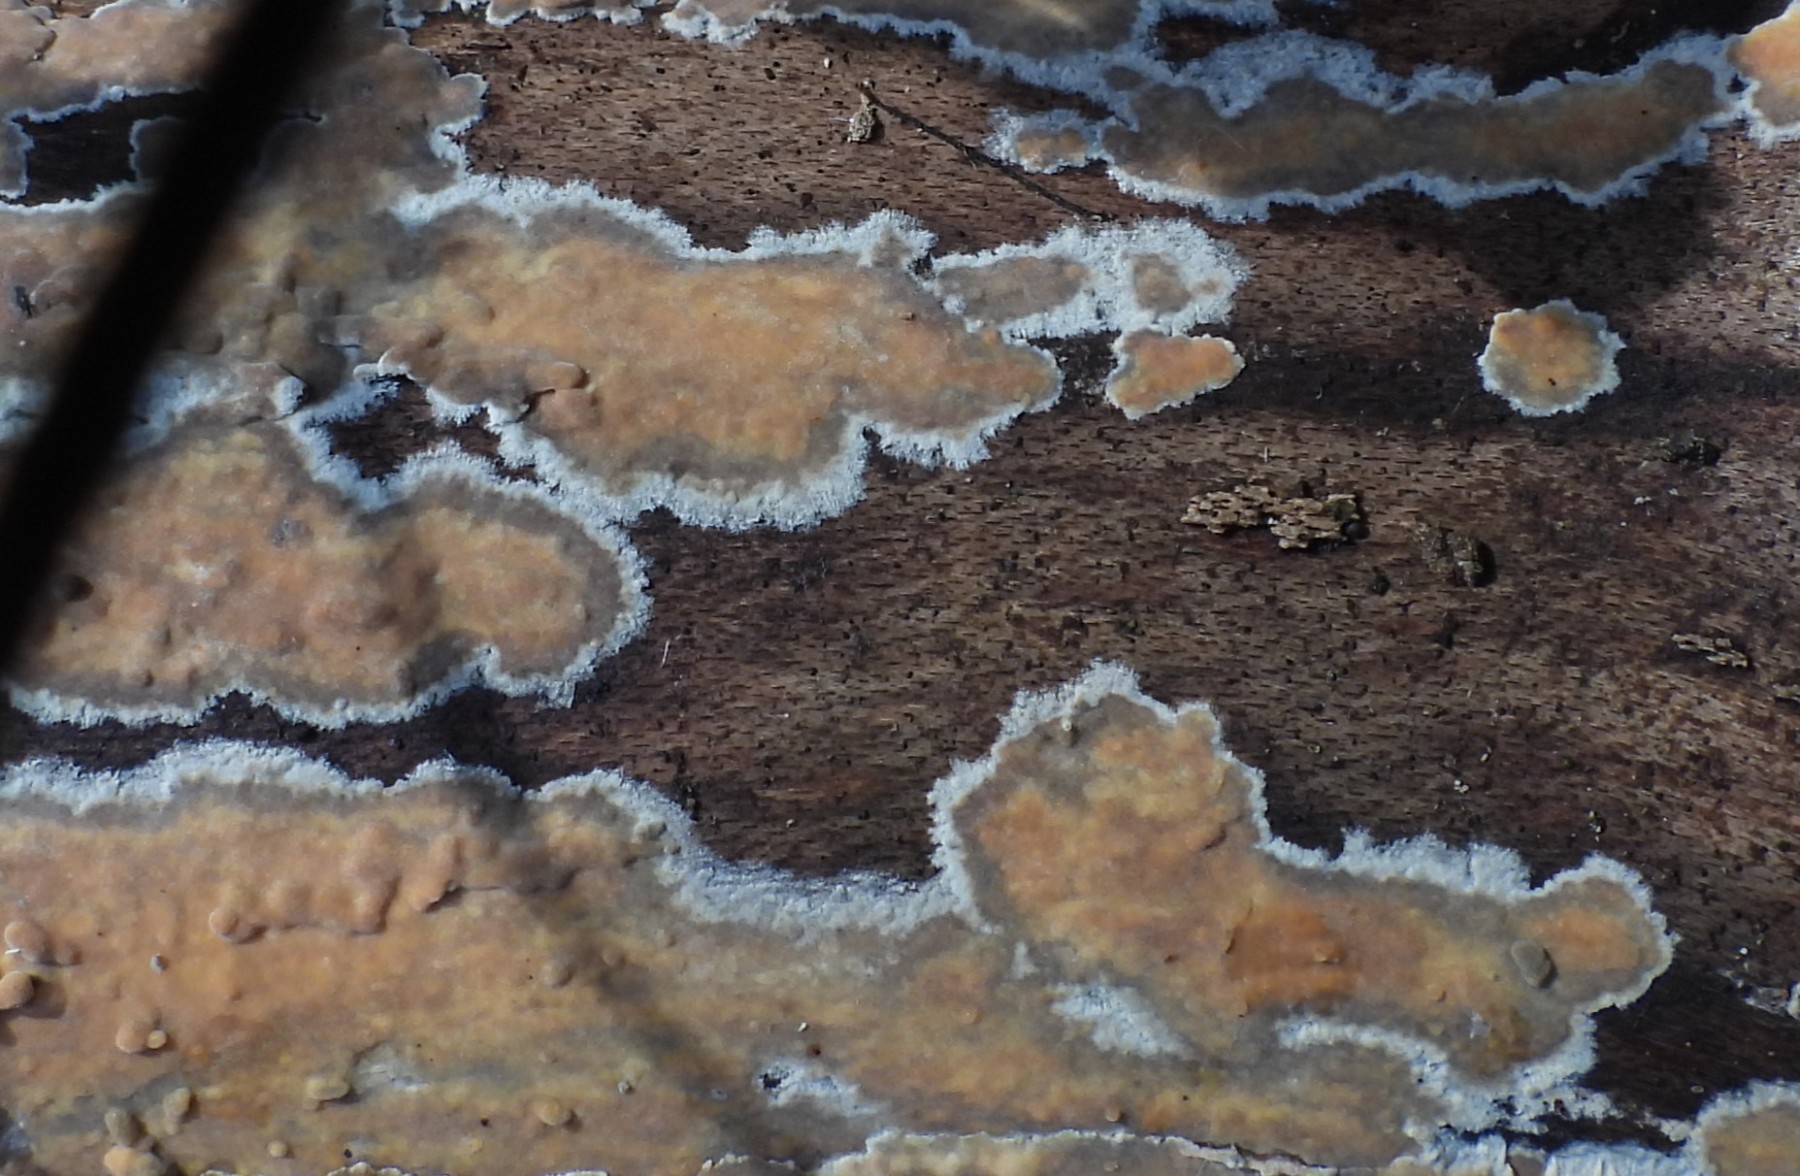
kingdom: Fungi
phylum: Basidiomycota
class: Agaricomycetes
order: Russulales
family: Peniophoraceae
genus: Peniophora
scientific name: Peniophora incarnata
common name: laksefarvet voksskind
